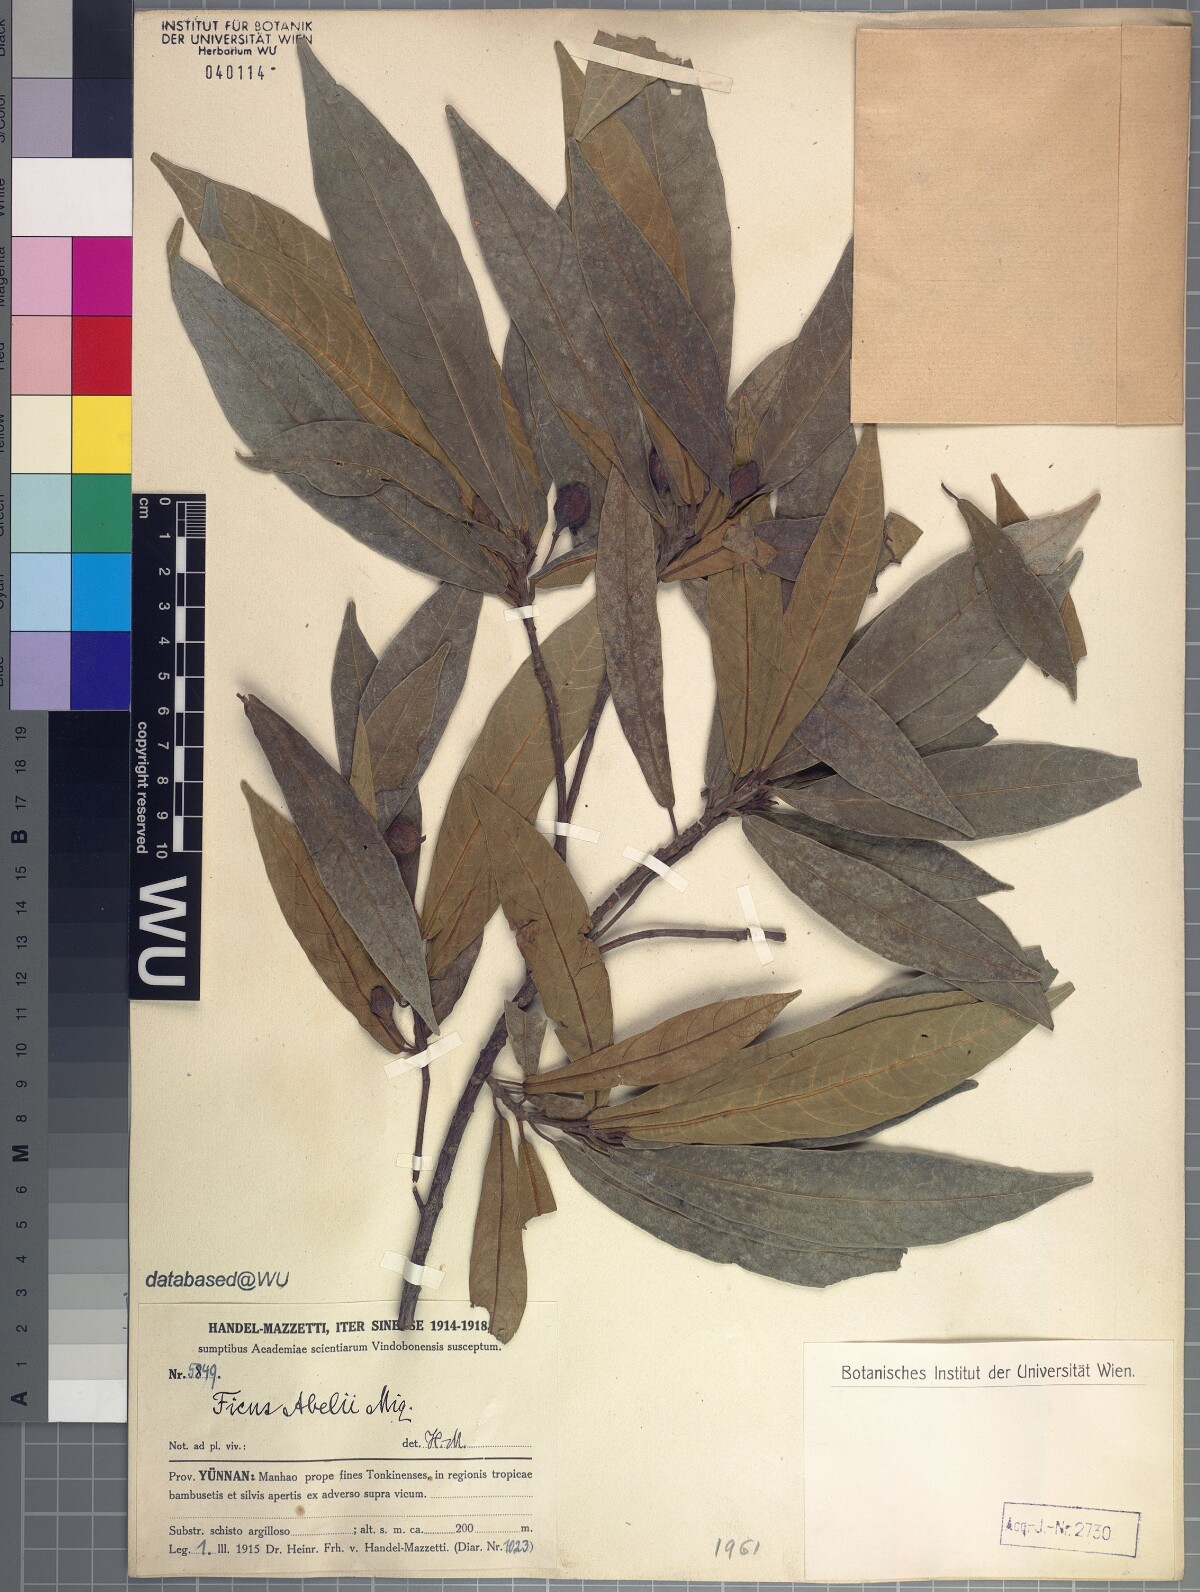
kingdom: Plantae
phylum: Tracheophyta
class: Magnoliopsida
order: Rosales
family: Moraceae
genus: Ficus
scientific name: Ficus abelii
